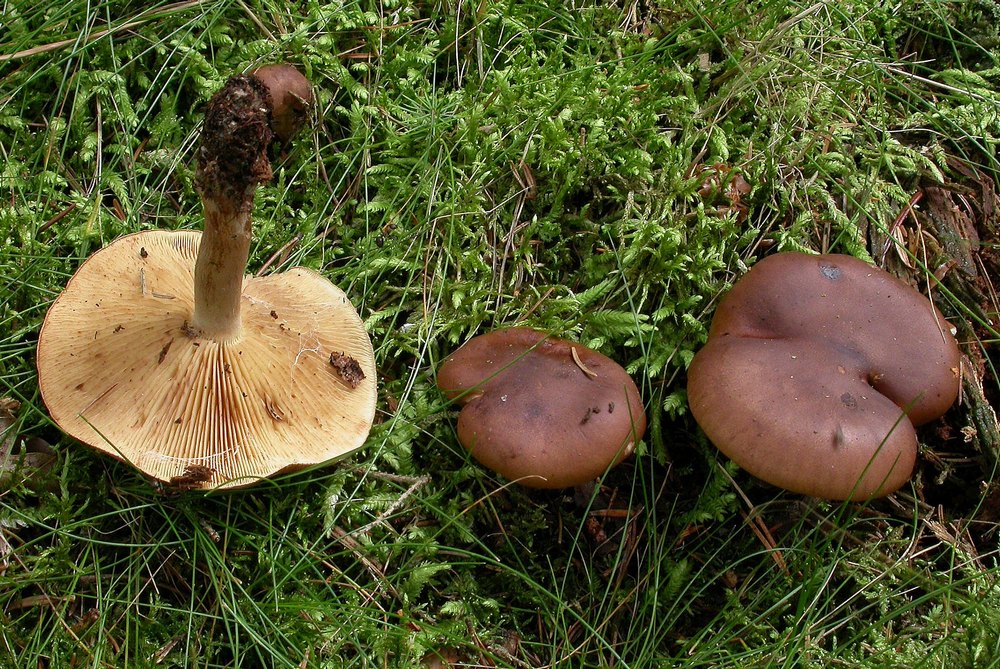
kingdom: Fungi
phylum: Basidiomycota
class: Agaricomycetes
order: Agaricales
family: Tricholomataceae
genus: Tricholoma
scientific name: Tricholoma fulvum
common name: birke-ridderhat
